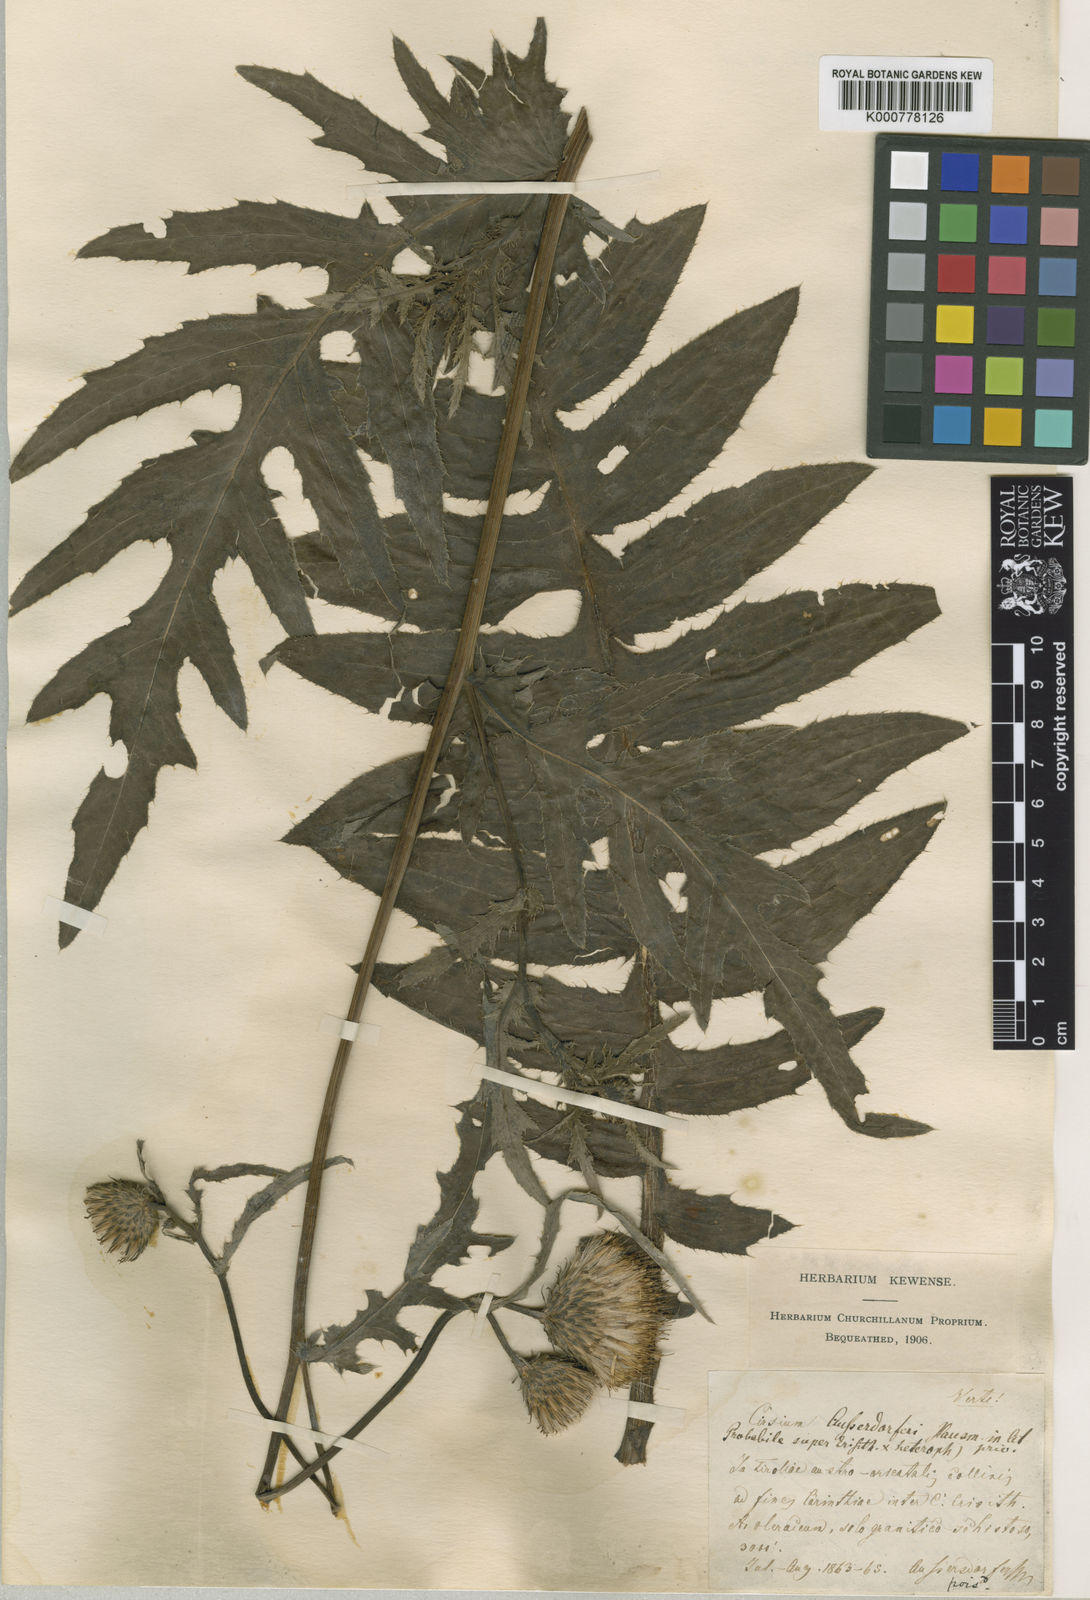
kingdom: Plantae
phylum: Tracheophyta
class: Magnoliopsida
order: Asterales
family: Asteraceae
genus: Cirsium
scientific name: Cirsium palustre
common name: Marsh thistle
